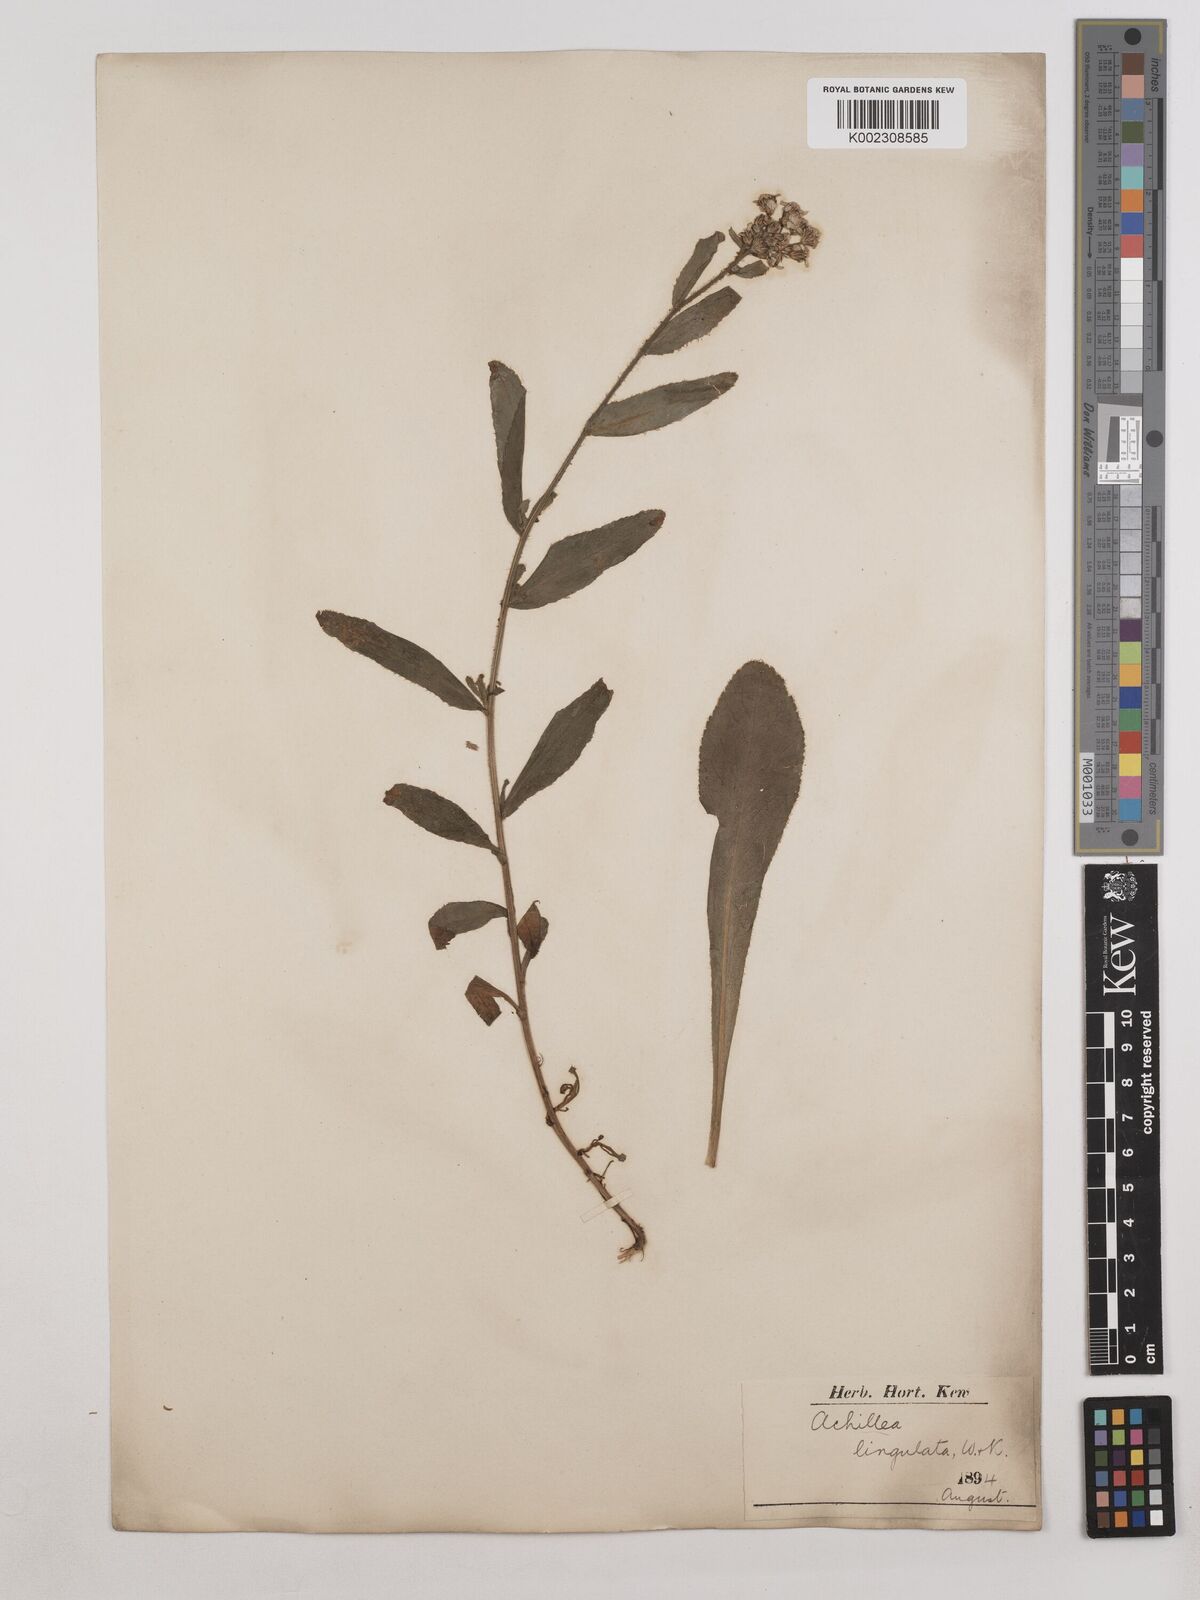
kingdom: Plantae
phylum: Tracheophyta
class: Magnoliopsida
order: Asterales
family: Asteraceae
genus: Achillea
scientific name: Achillea lingulata
